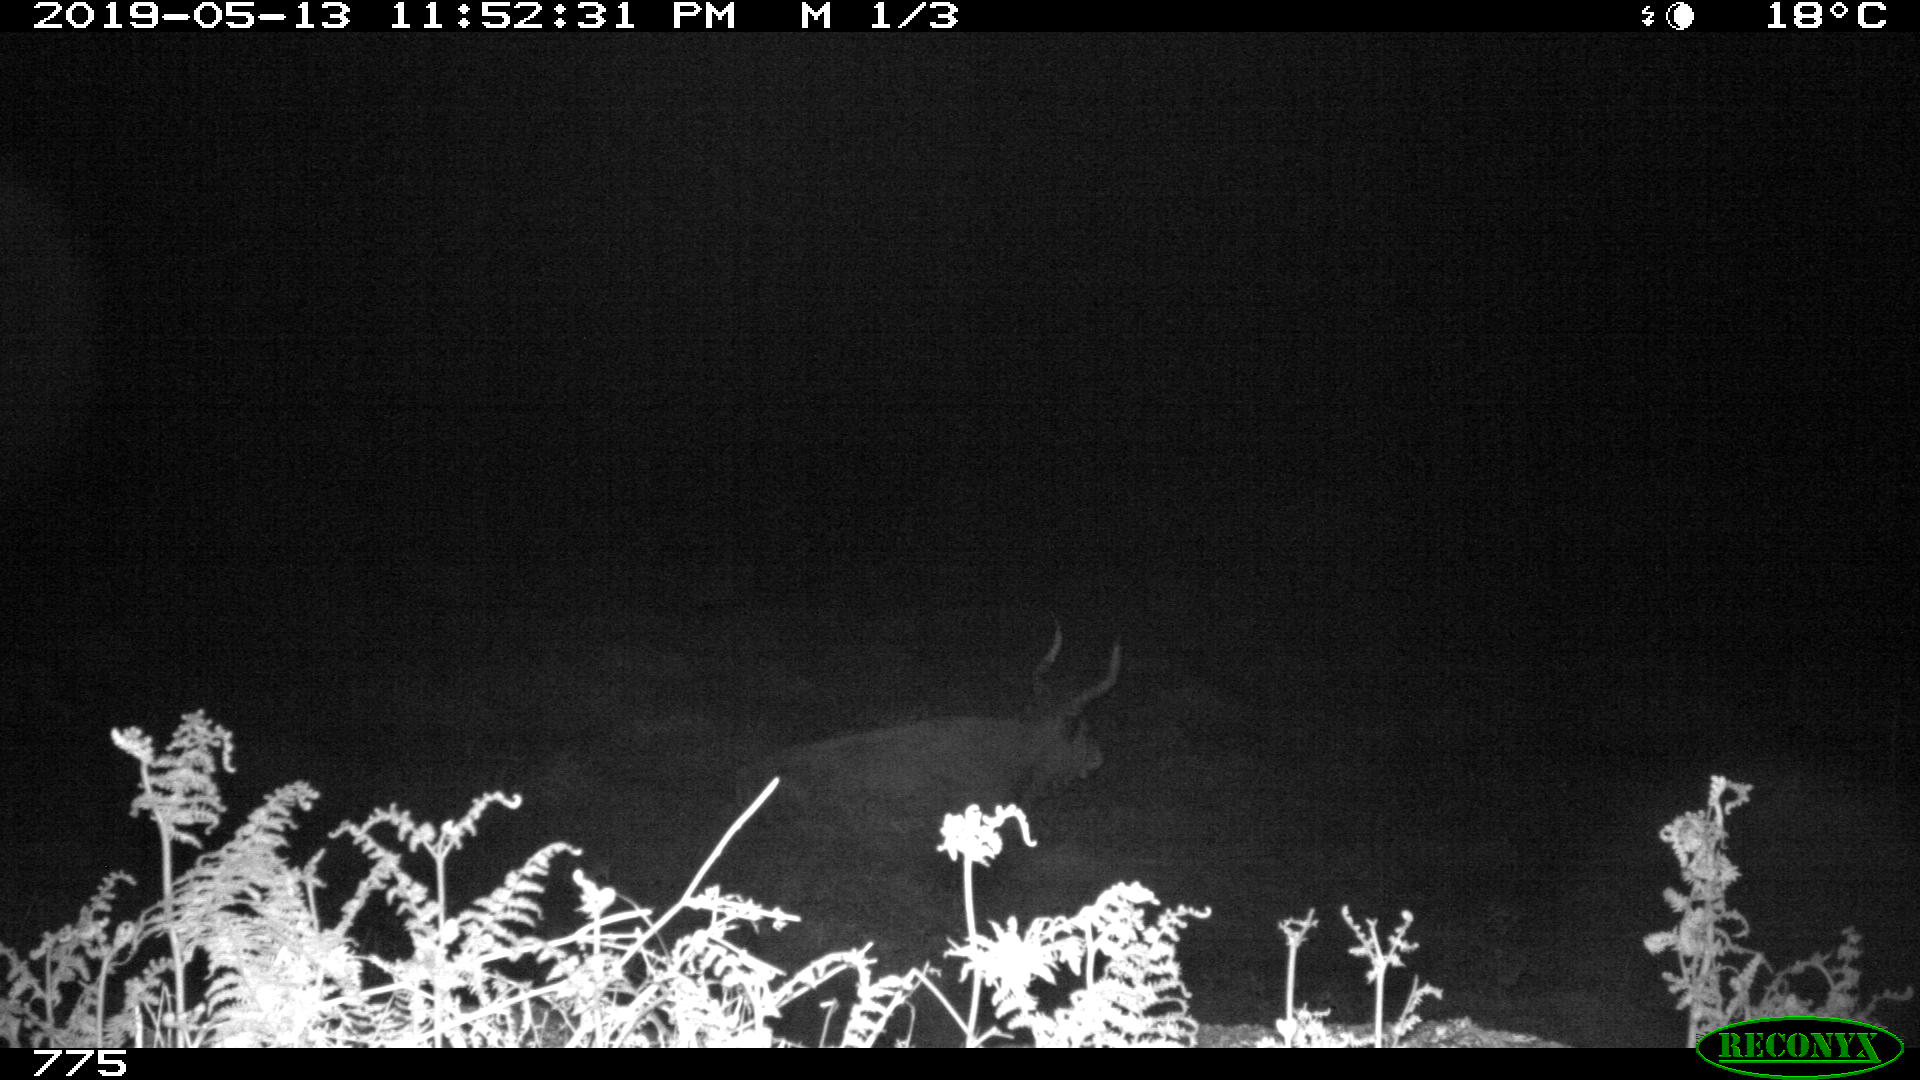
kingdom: Animalia
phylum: Chordata
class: Mammalia
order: Artiodactyla
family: Bovidae
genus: Bos
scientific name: Bos taurus
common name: Domesticated cattle
